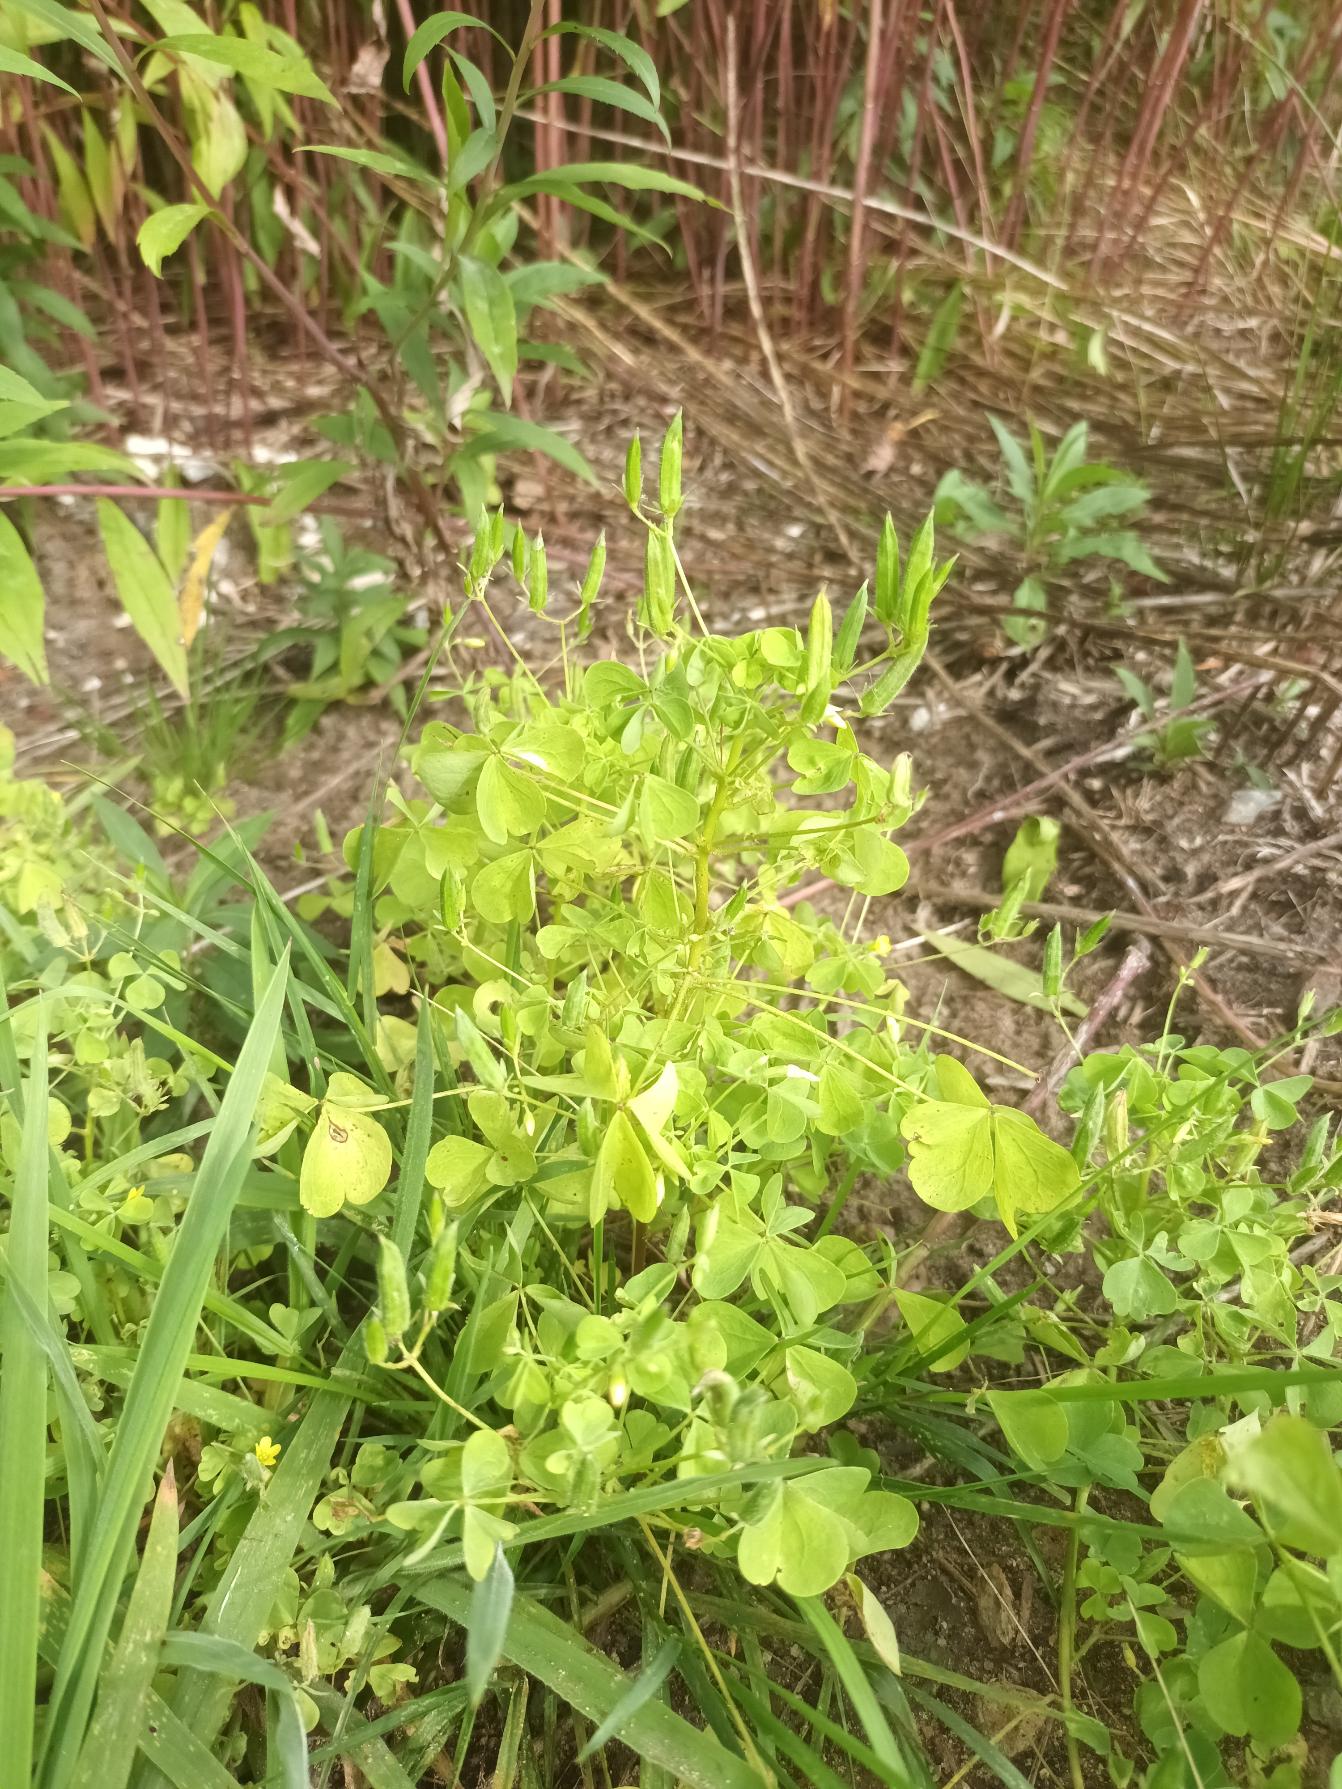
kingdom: Plantae
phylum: Tracheophyta
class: Magnoliopsida
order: Oxalidales
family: Oxalidaceae
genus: Oxalis
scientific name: Oxalis stricta
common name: Rank surkløver
